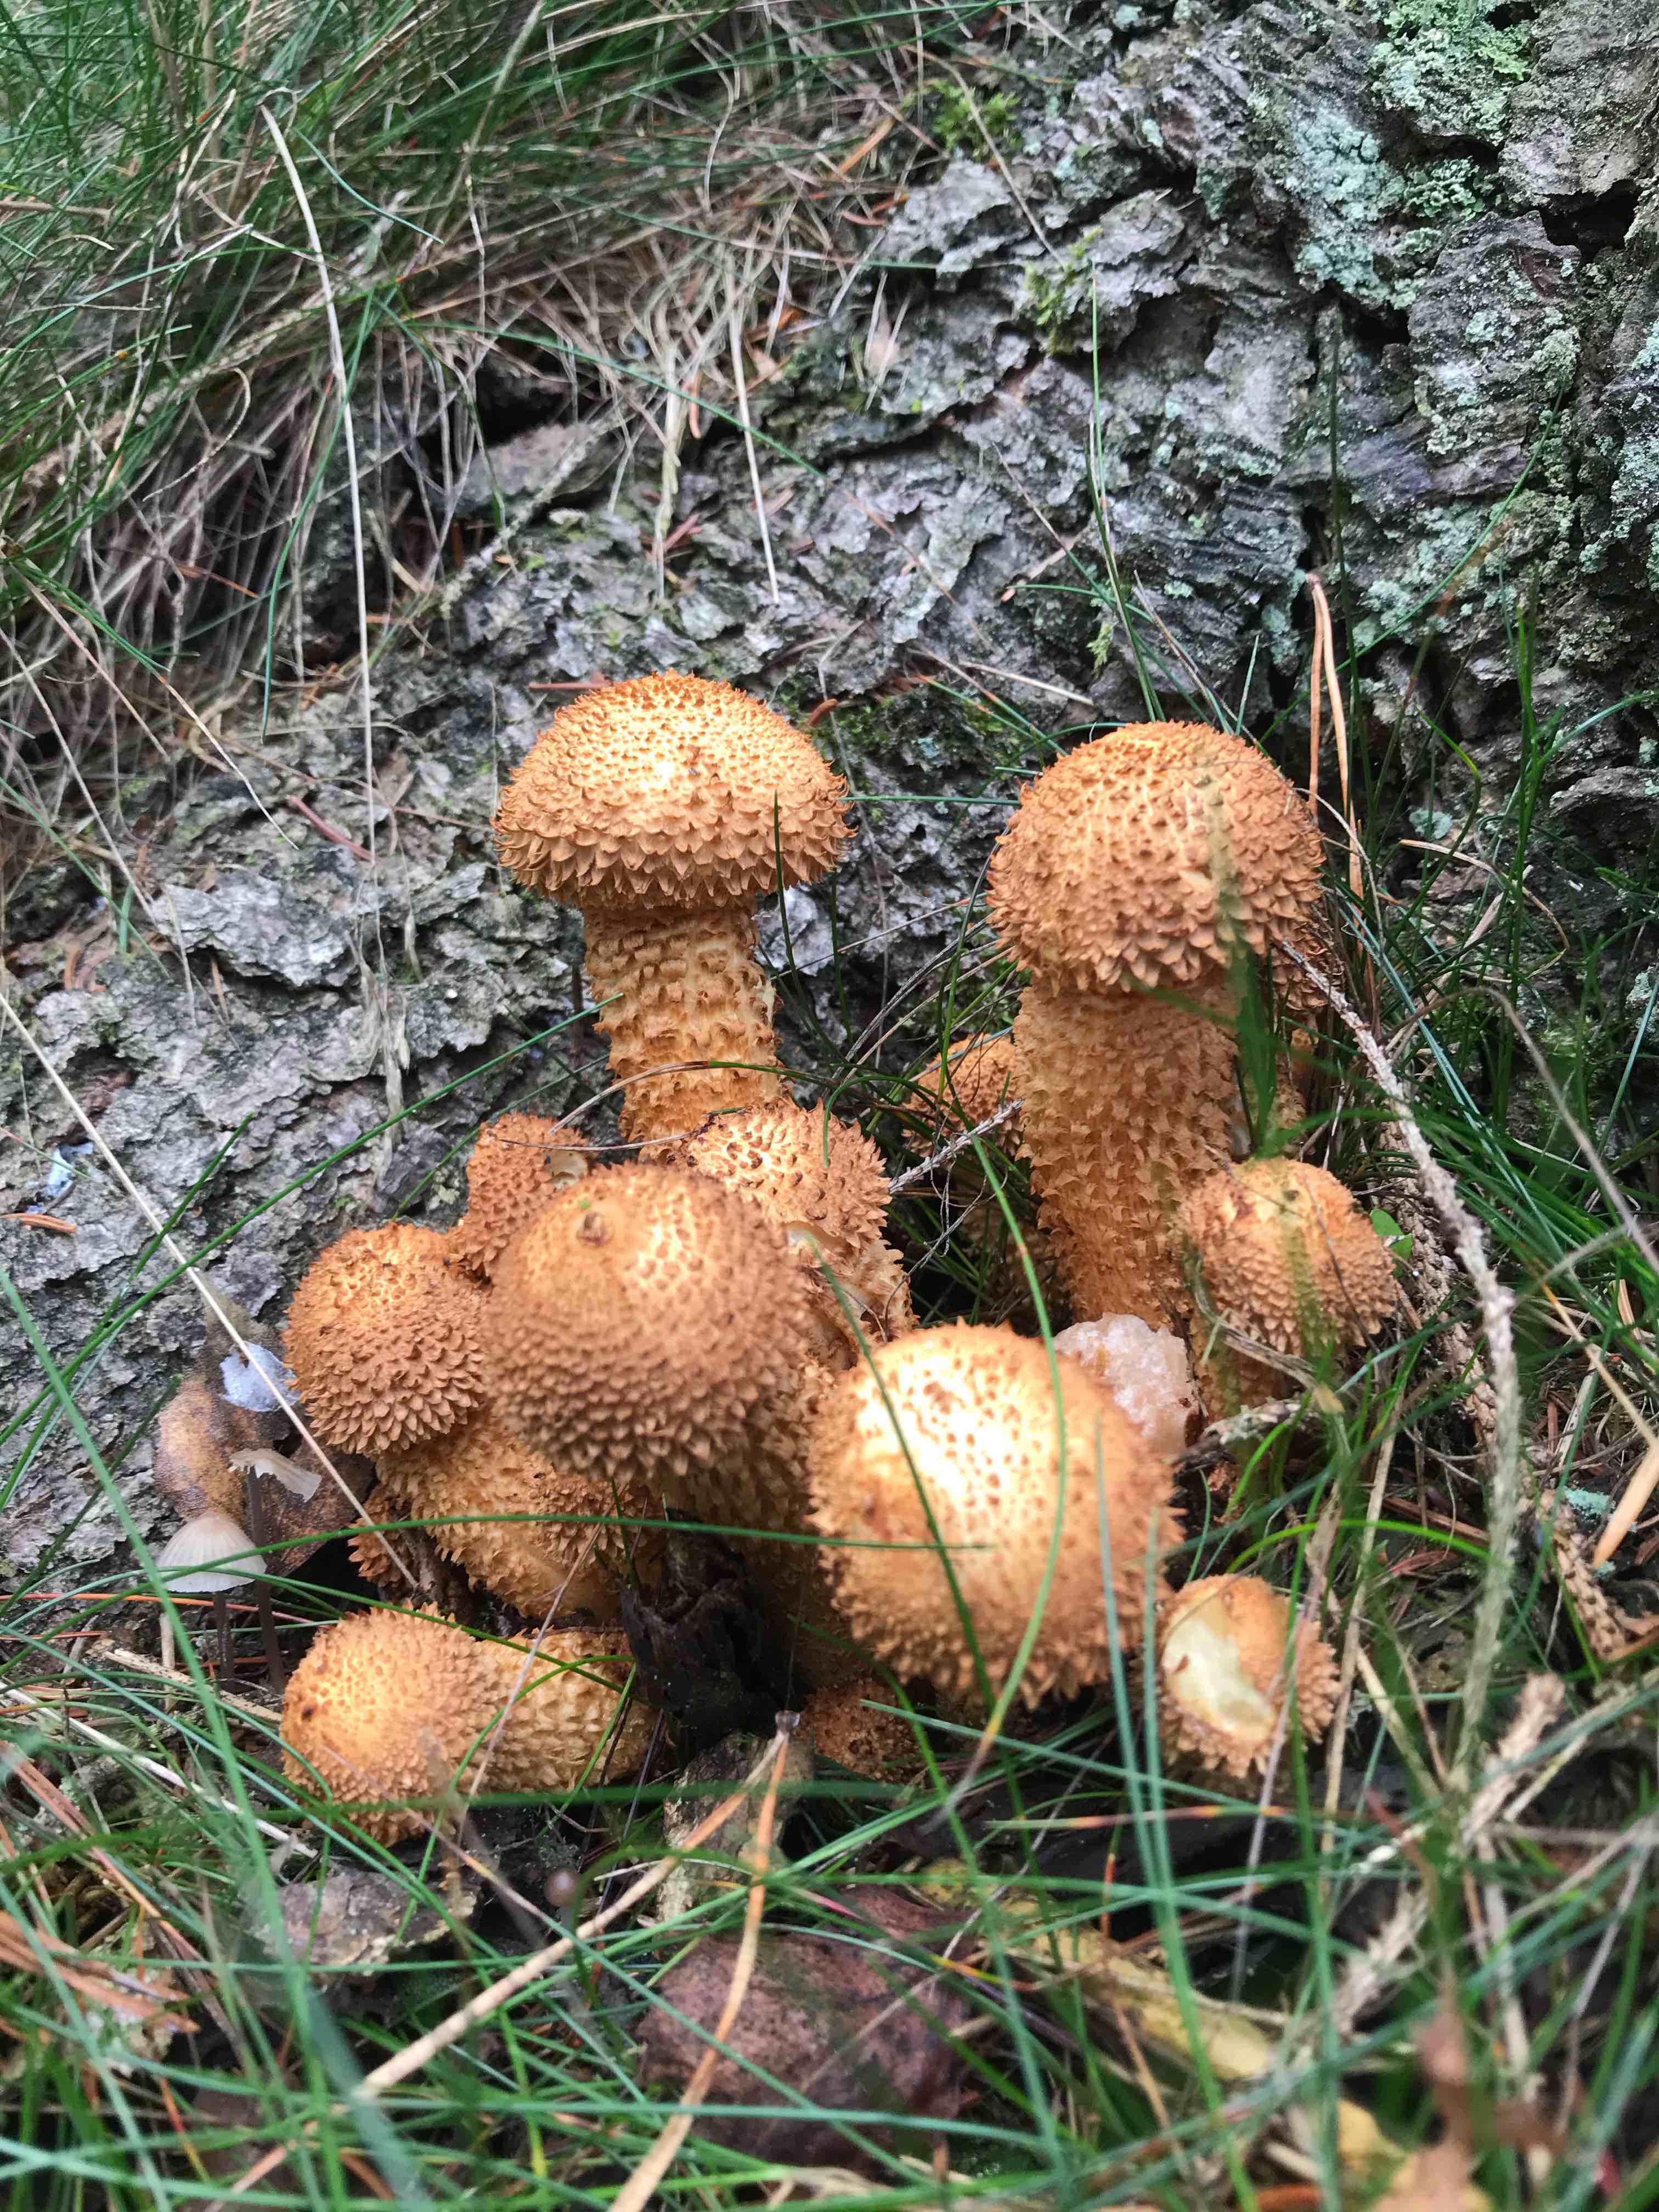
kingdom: Fungi
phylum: Basidiomycota
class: Agaricomycetes
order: Agaricales
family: Strophariaceae
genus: Pholiota
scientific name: Pholiota squarrosa
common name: krumskællet skælhat
